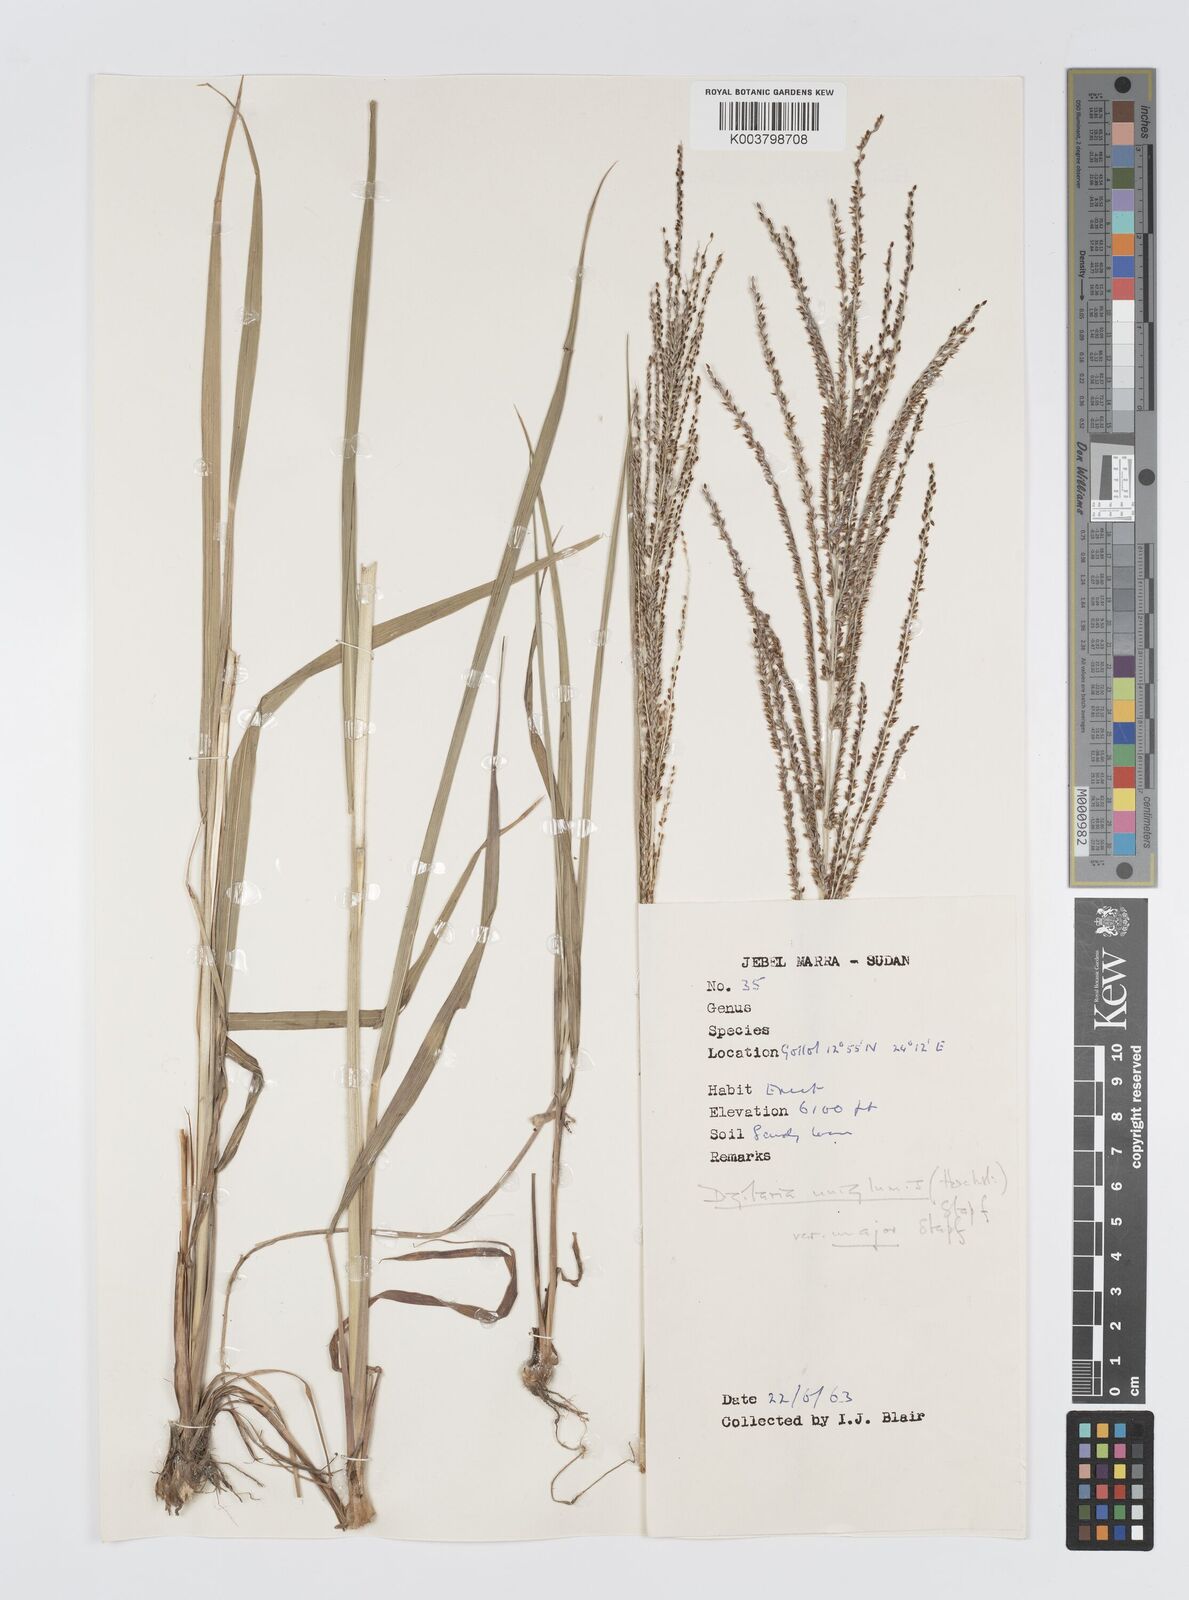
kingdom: Plantae
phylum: Tracheophyta
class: Liliopsida
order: Poales
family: Poaceae
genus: Digitaria
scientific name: Digitaria diagonalis
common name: Brown-seed finger grass
